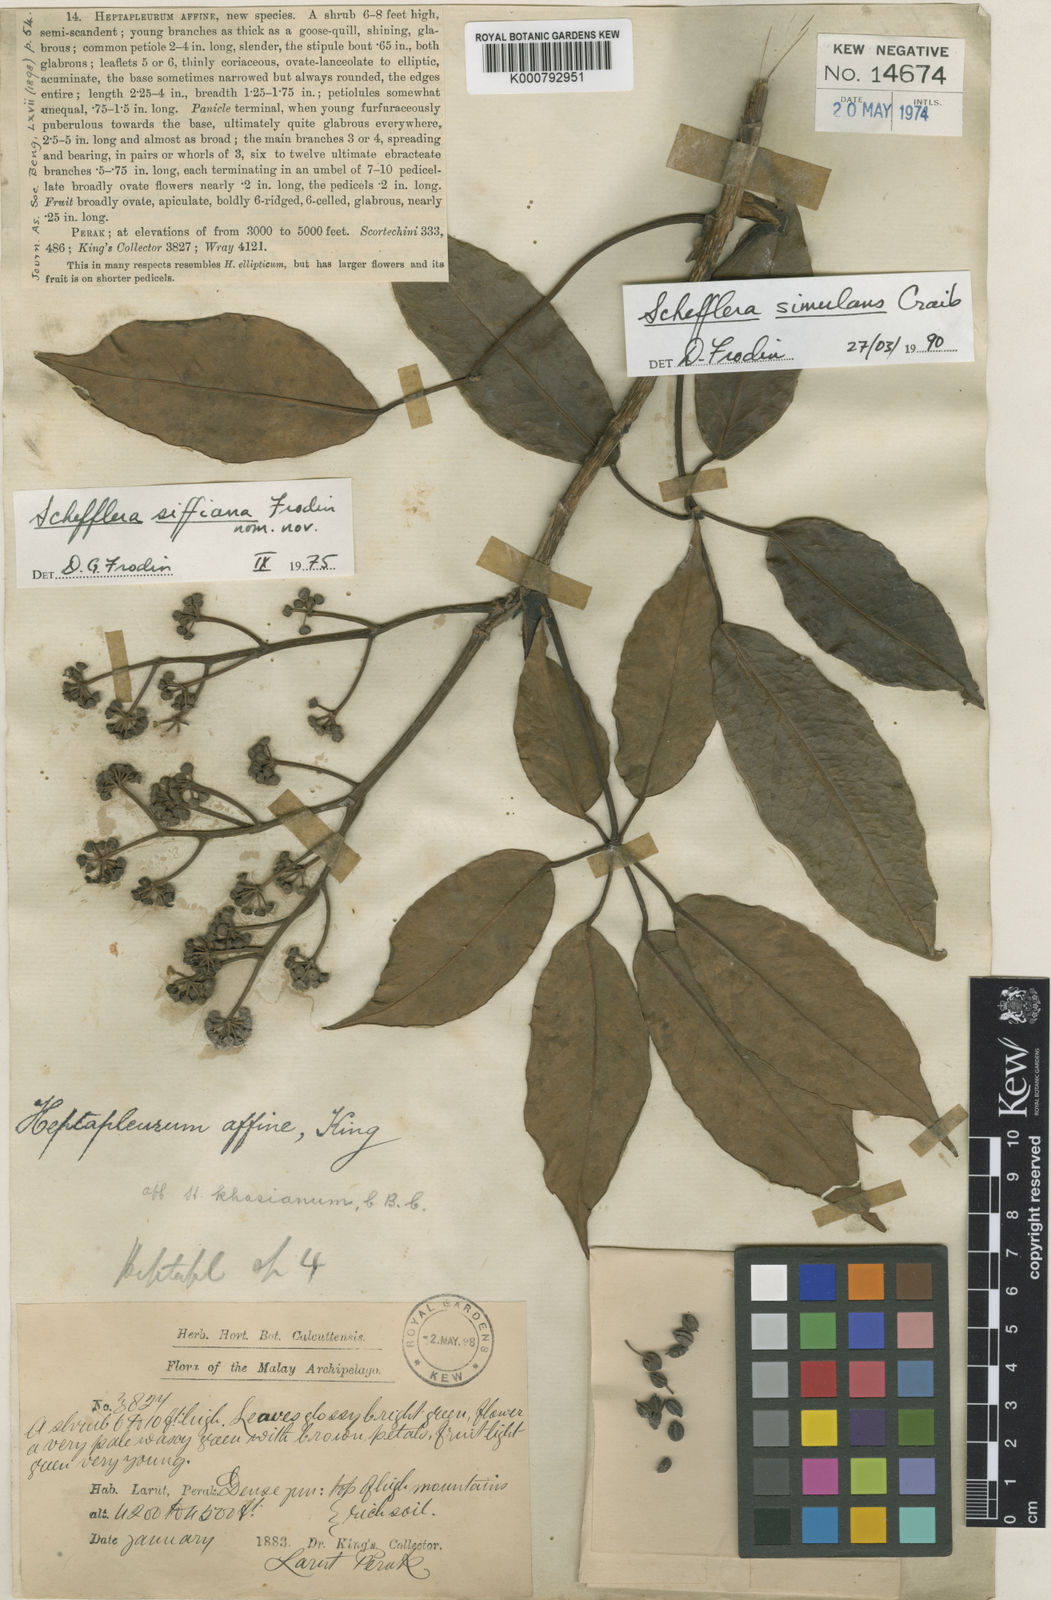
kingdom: Plantae
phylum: Tracheophyta
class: Magnoliopsida
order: Apiales
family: Araliaceae
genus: Schefflera
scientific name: Schefflera
